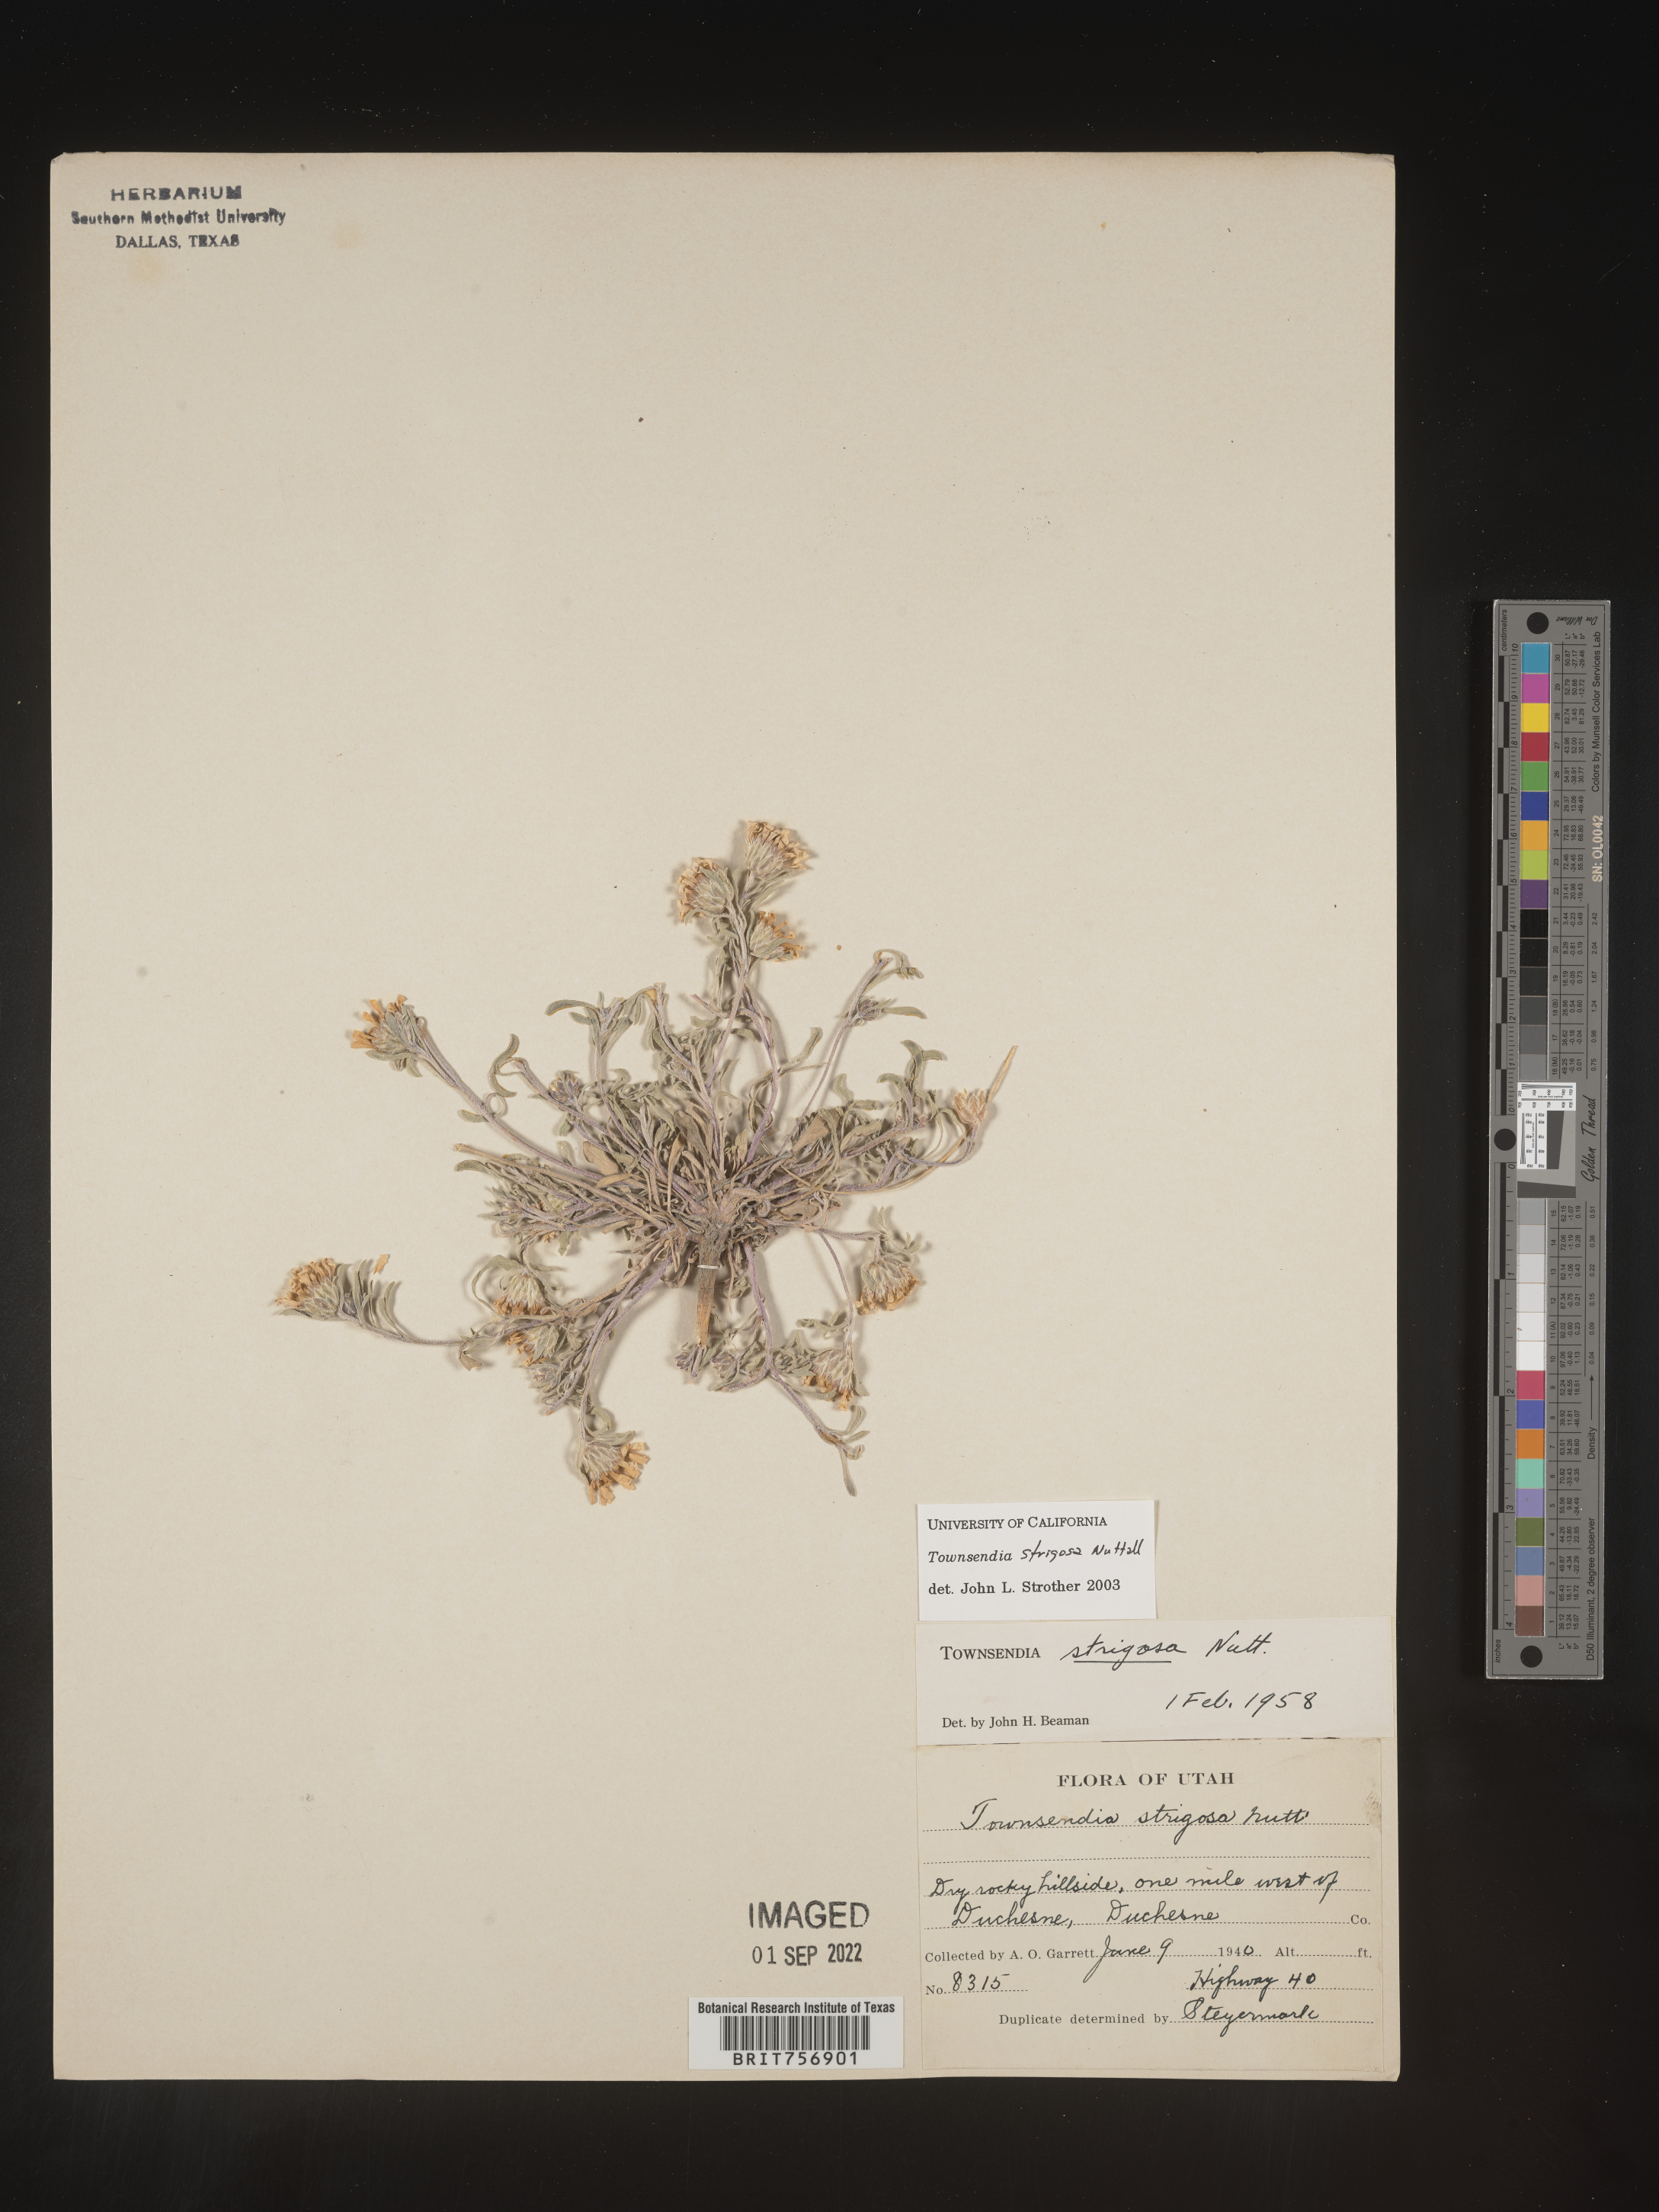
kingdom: Plantae
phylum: Tracheophyta
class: Magnoliopsida
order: Asterales
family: Asteraceae
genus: Townsendia
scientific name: Townsendia strigosa
